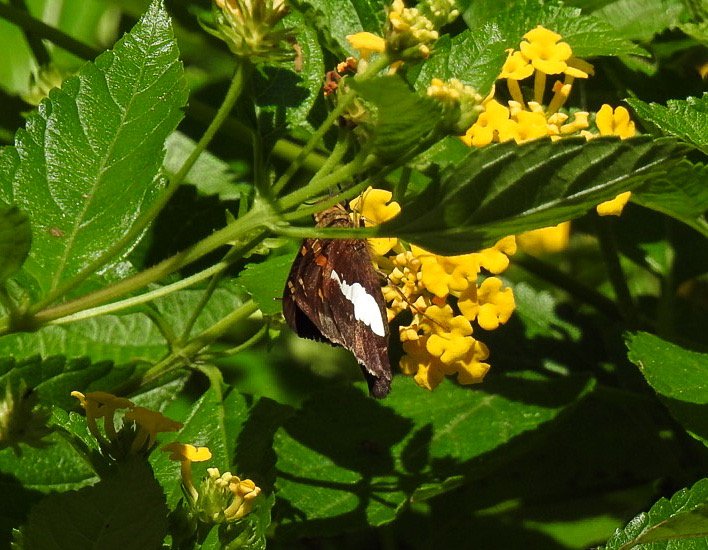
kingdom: Animalia
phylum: Arthropoda
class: Insecta
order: Lepidoptera
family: Hesperiidae
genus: Epargyreus
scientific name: Epargyreus clarus
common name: Silver-spotted Skipper
